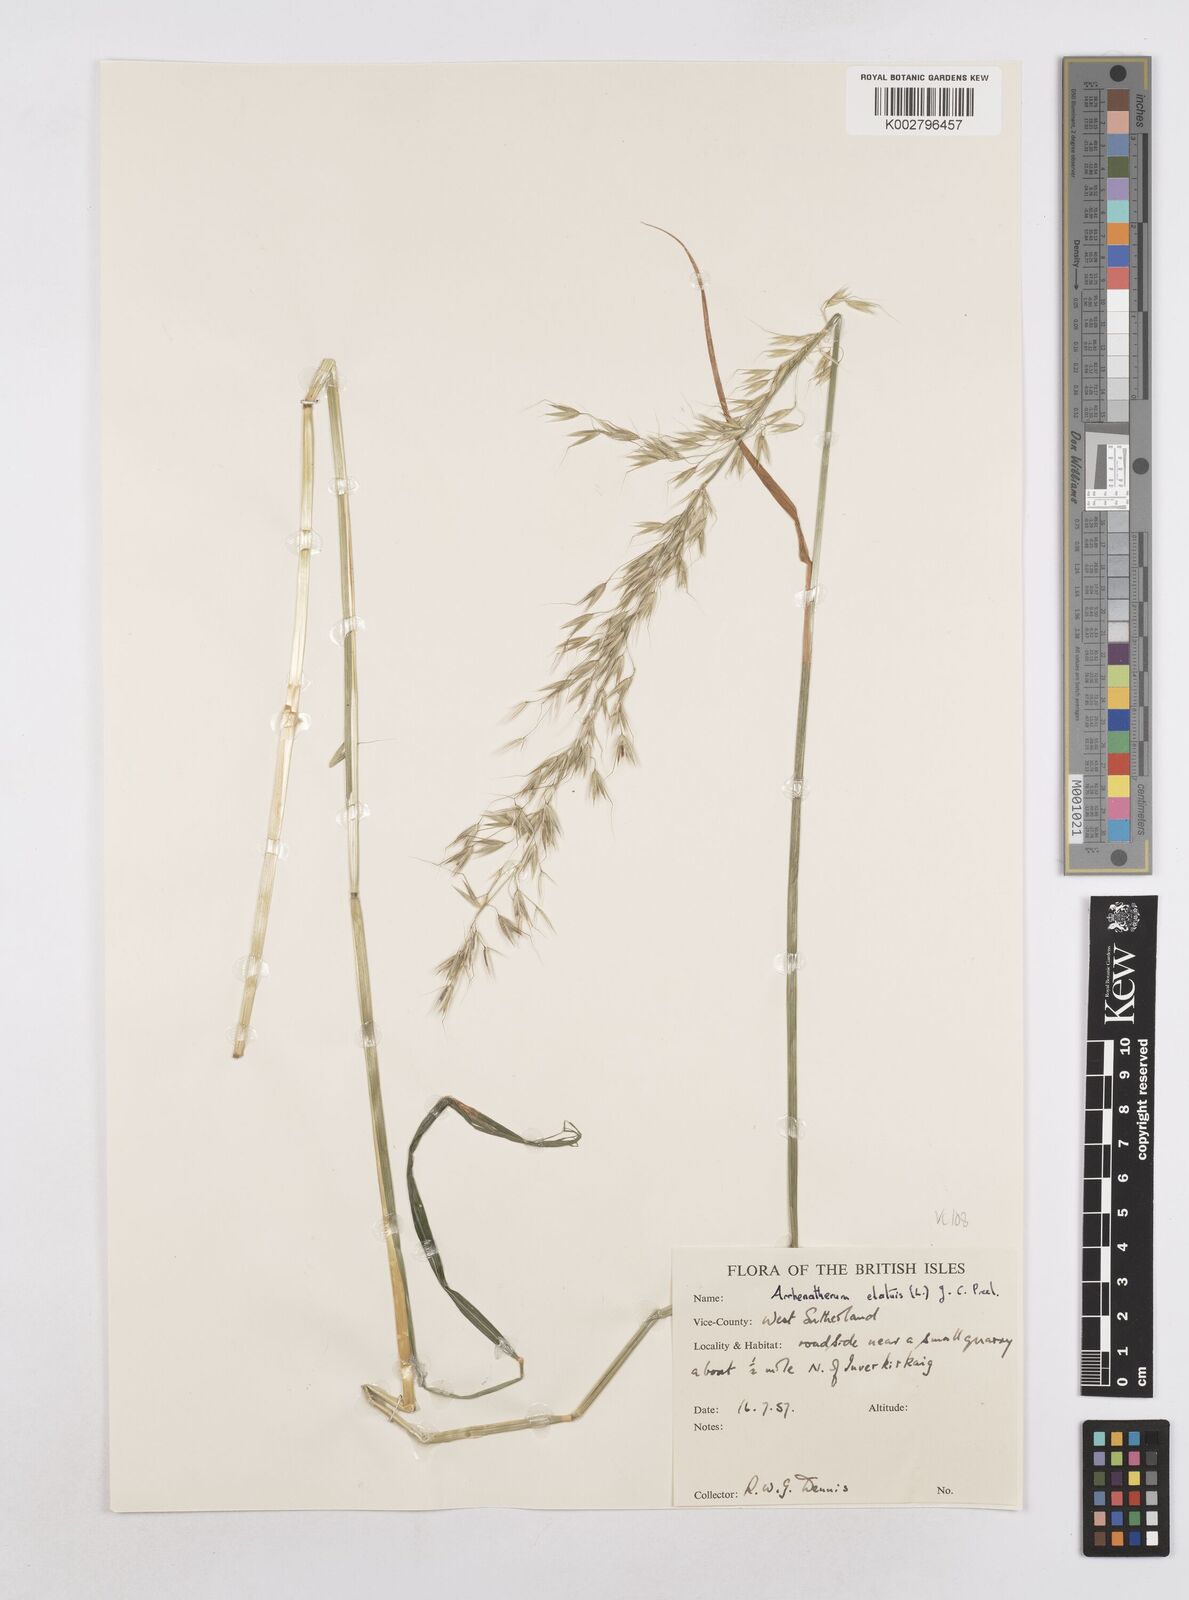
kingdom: Plantae
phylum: Tracheophyta
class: Liliopsida
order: Poales
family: Poaceae
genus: Arrhenatherum
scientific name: Arrhenatherum elatius
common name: Tall oatgrass
